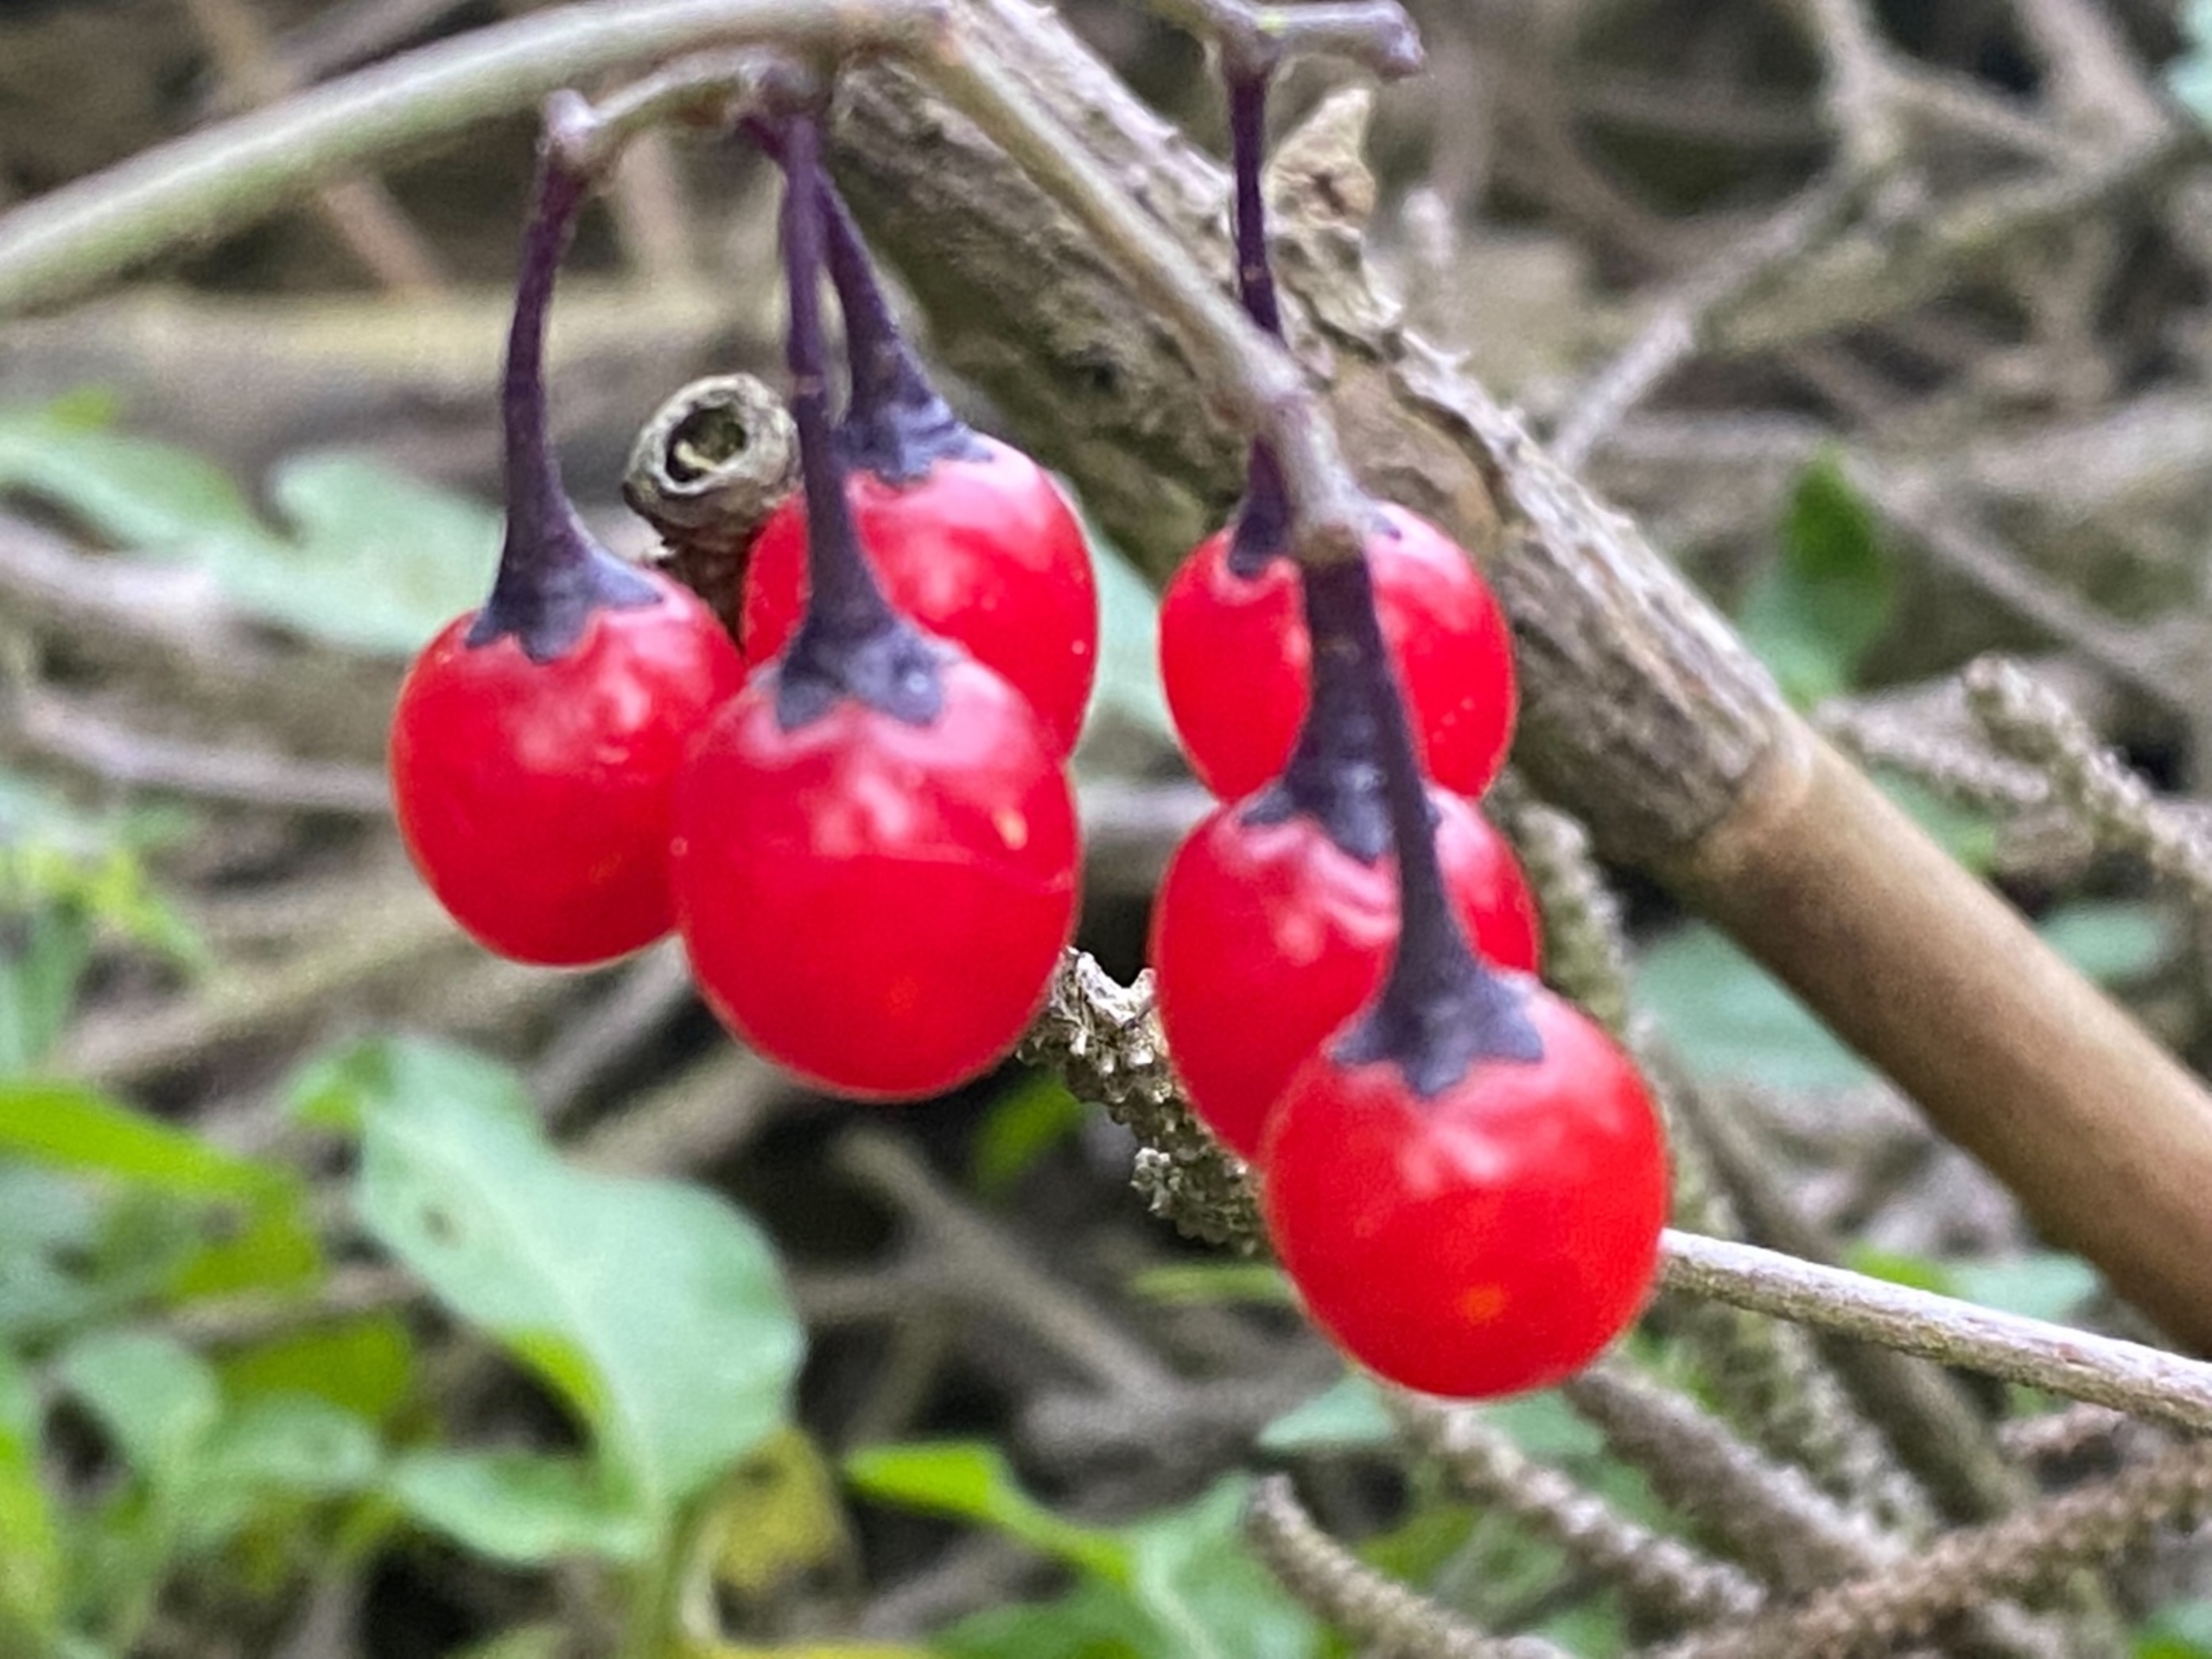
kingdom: Plantae
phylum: Tracheophyta
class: Magnoliopsida
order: Solanales
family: Solanaceae
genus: Solanum
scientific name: Solanum dulcamara
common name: Bittersød natskygge
